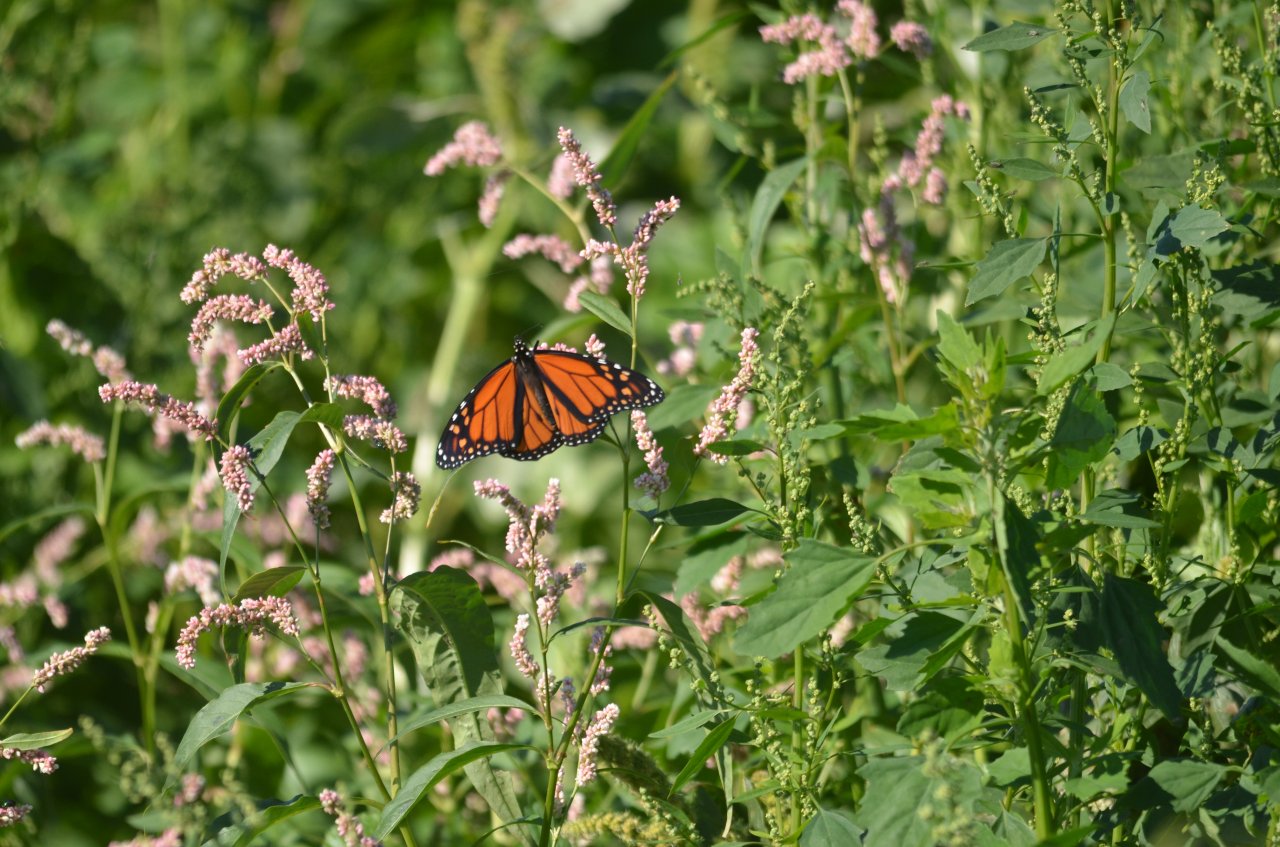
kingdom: Animalia
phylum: Arthropoda
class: Insecta
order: Lepidoptera
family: Nymphalidae
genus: Danaus
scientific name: Danaus plexippus
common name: Monarch
